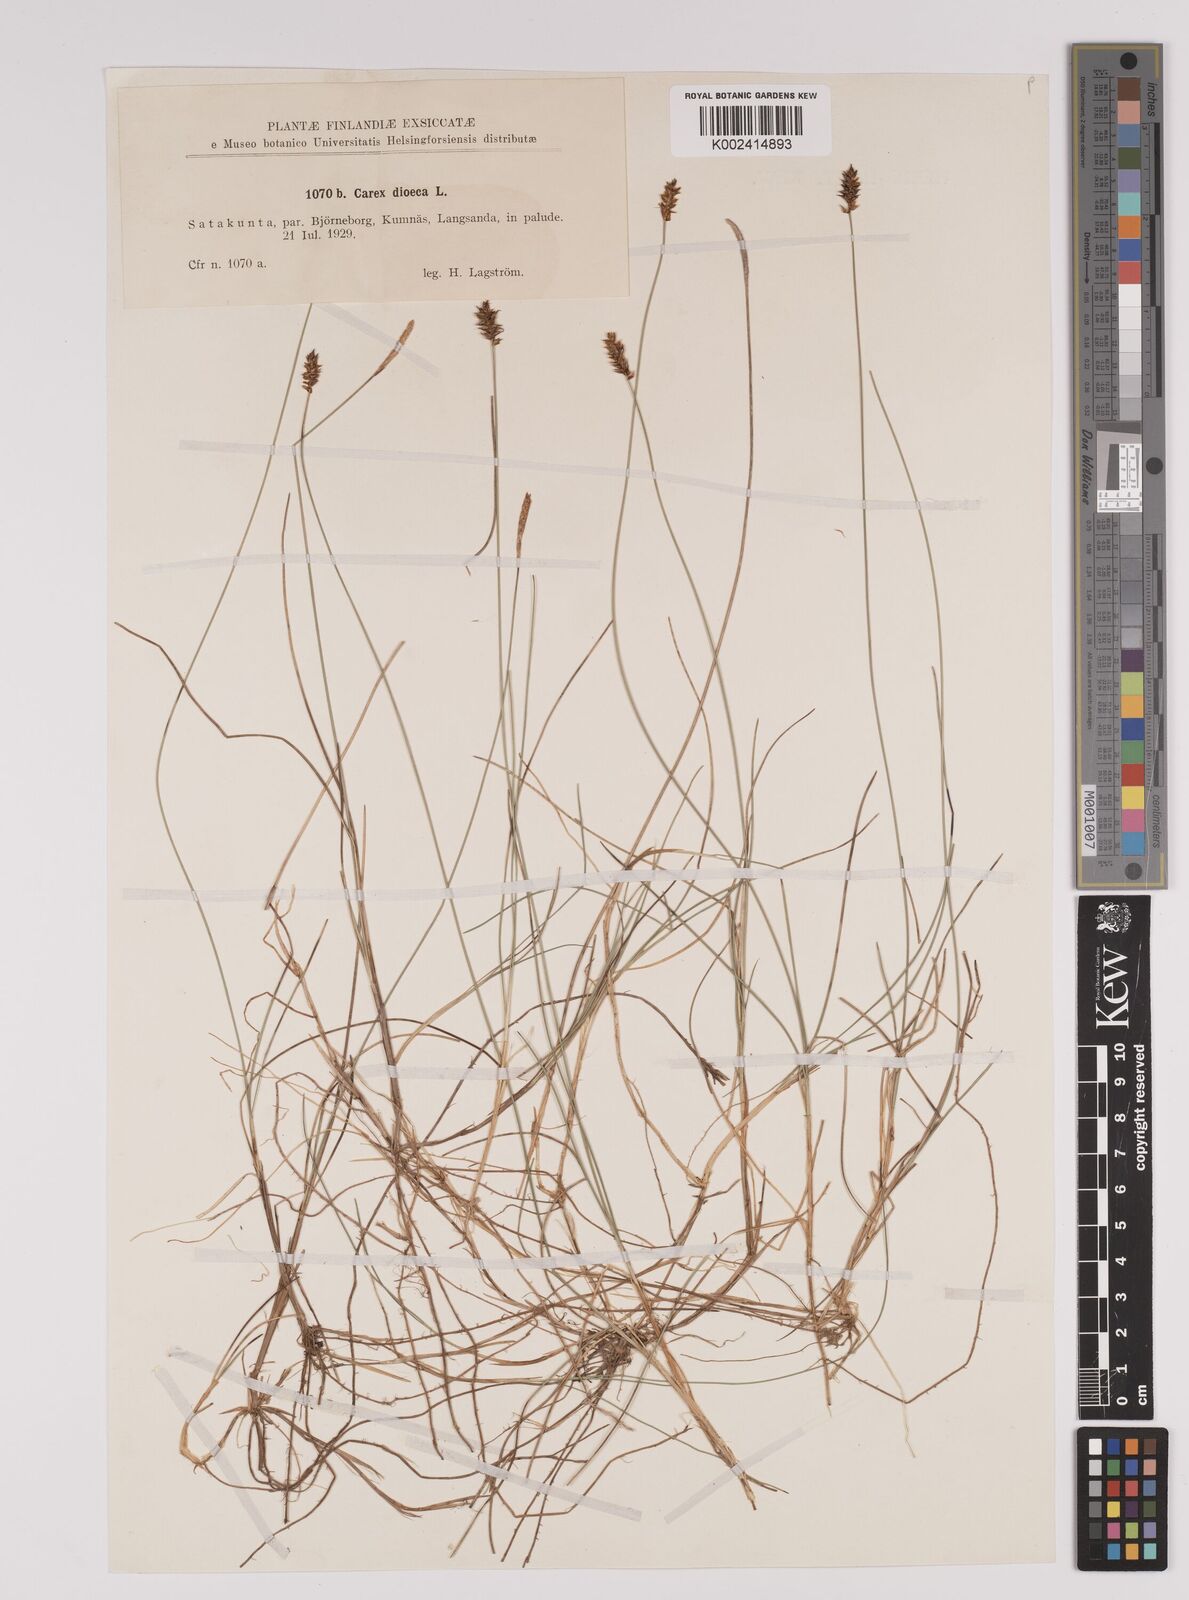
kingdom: Plantae
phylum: Tracheophyta
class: Liliopsida
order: Poales
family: Cyperaceae
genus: Carex
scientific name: Carex dioica
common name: Dioecious sedge
